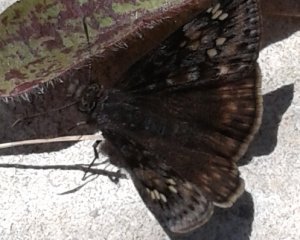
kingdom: Animalia
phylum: Arthropoda
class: Insecta
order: Lepidoptera
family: Hesperiidae
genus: Gesta
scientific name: Gesta
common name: Juvenal's Duskywing
